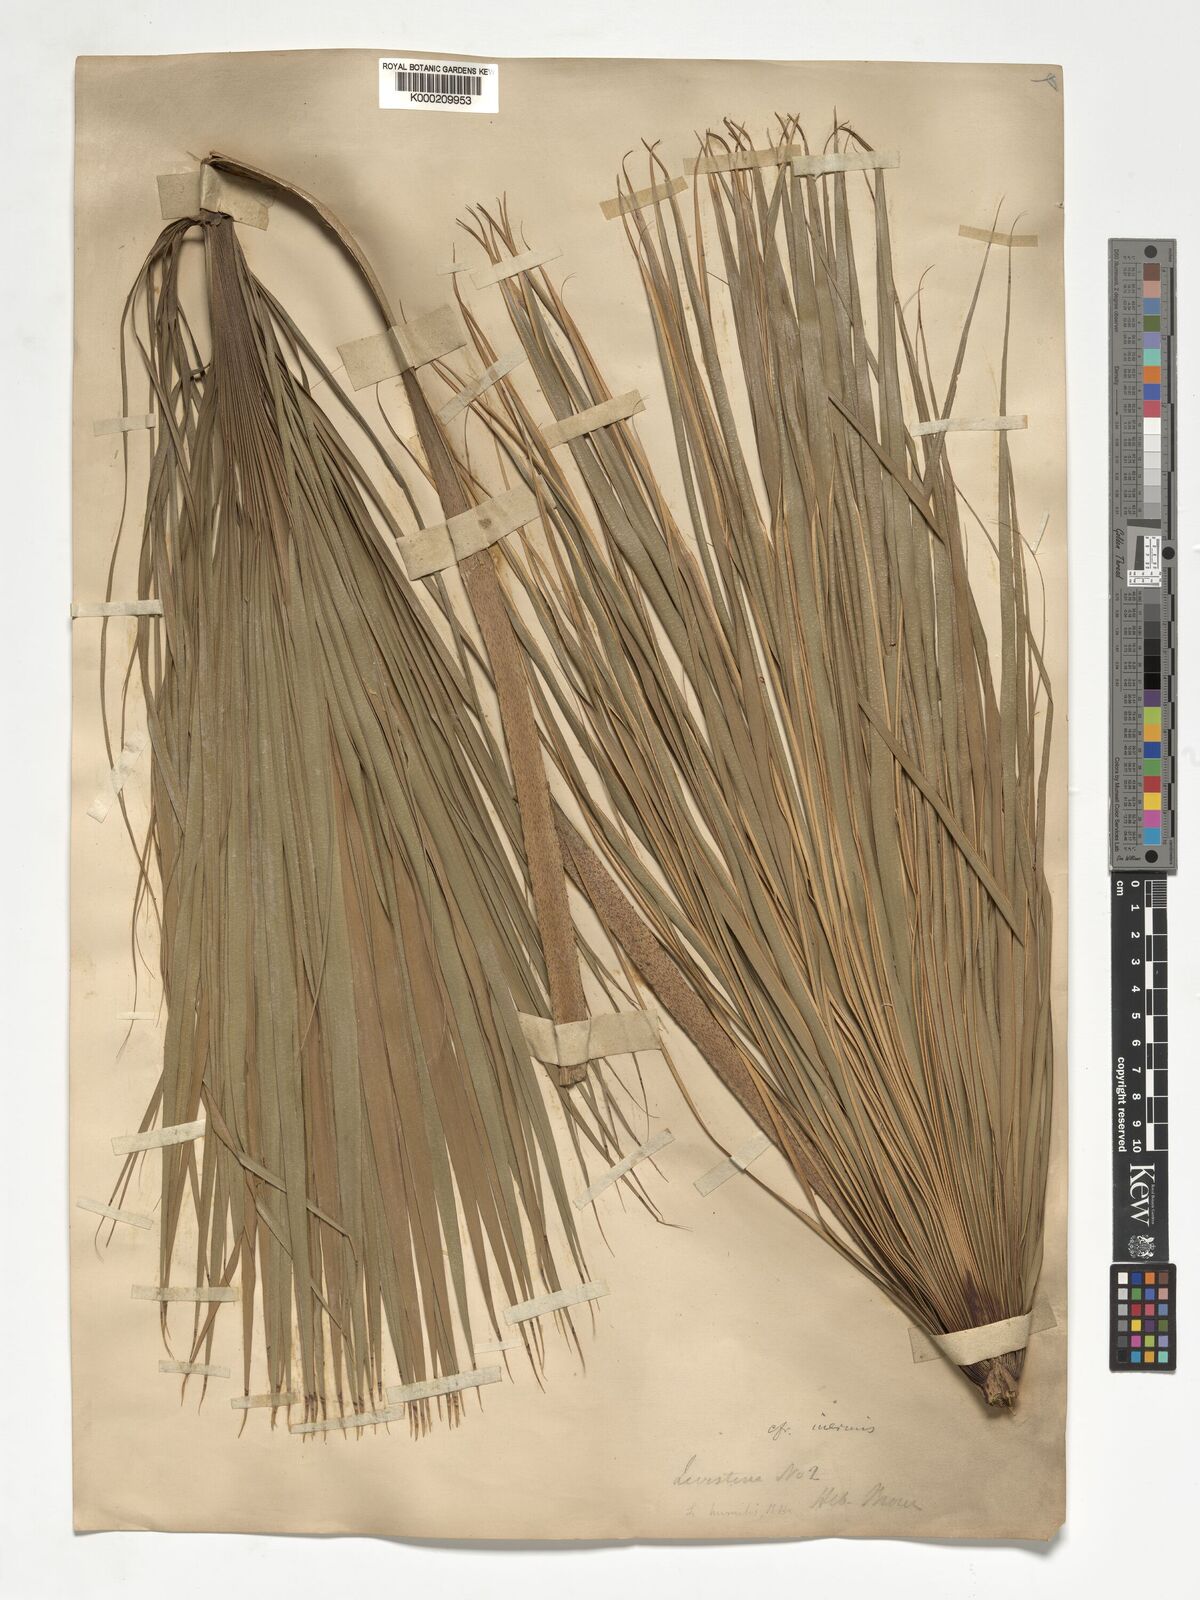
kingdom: Plantae
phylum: Tracheophyta
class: Liliopsida
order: Arecales
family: Arecaceae
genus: Livistona
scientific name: Livistona humilis
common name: Cabbage palm
